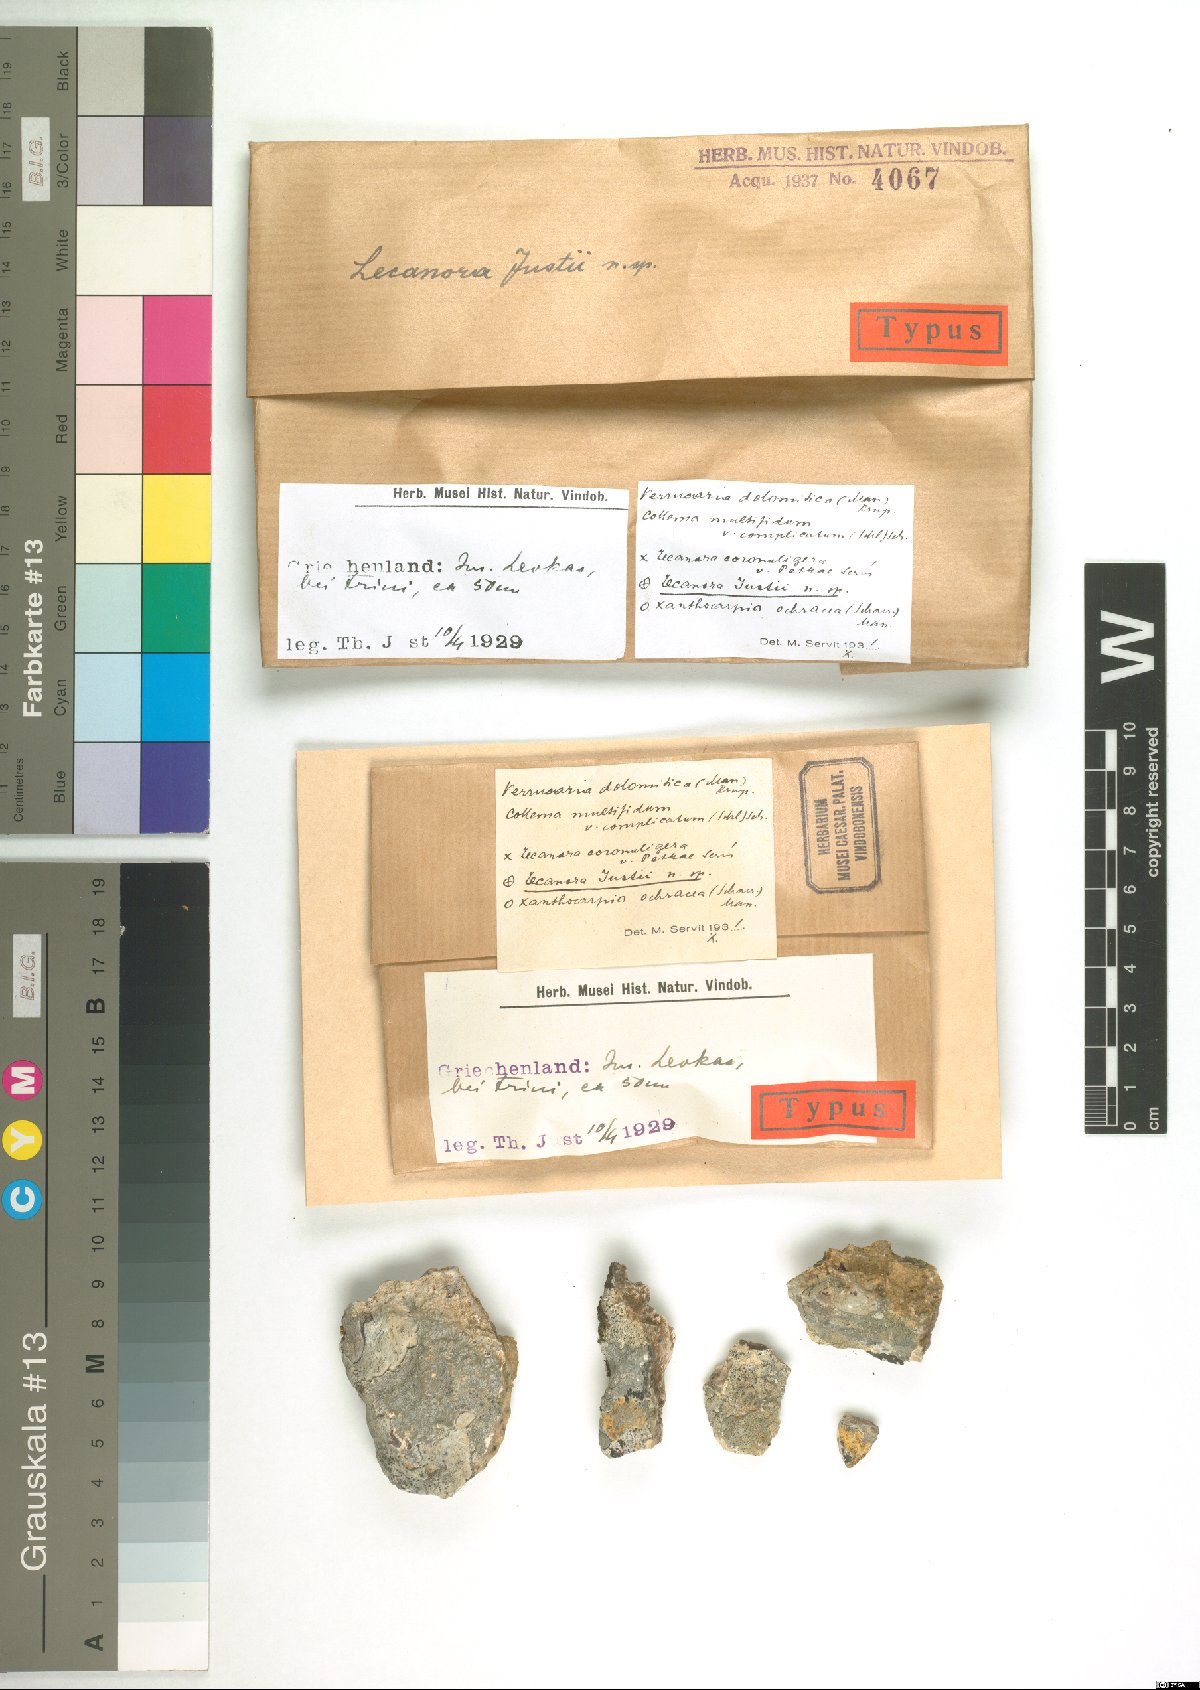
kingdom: Fungi
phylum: Ascomycota
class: Lecanoromycetes
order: Pertusariales
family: Megasporaceae
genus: Lobothallia
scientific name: Lobothallia cheresina
